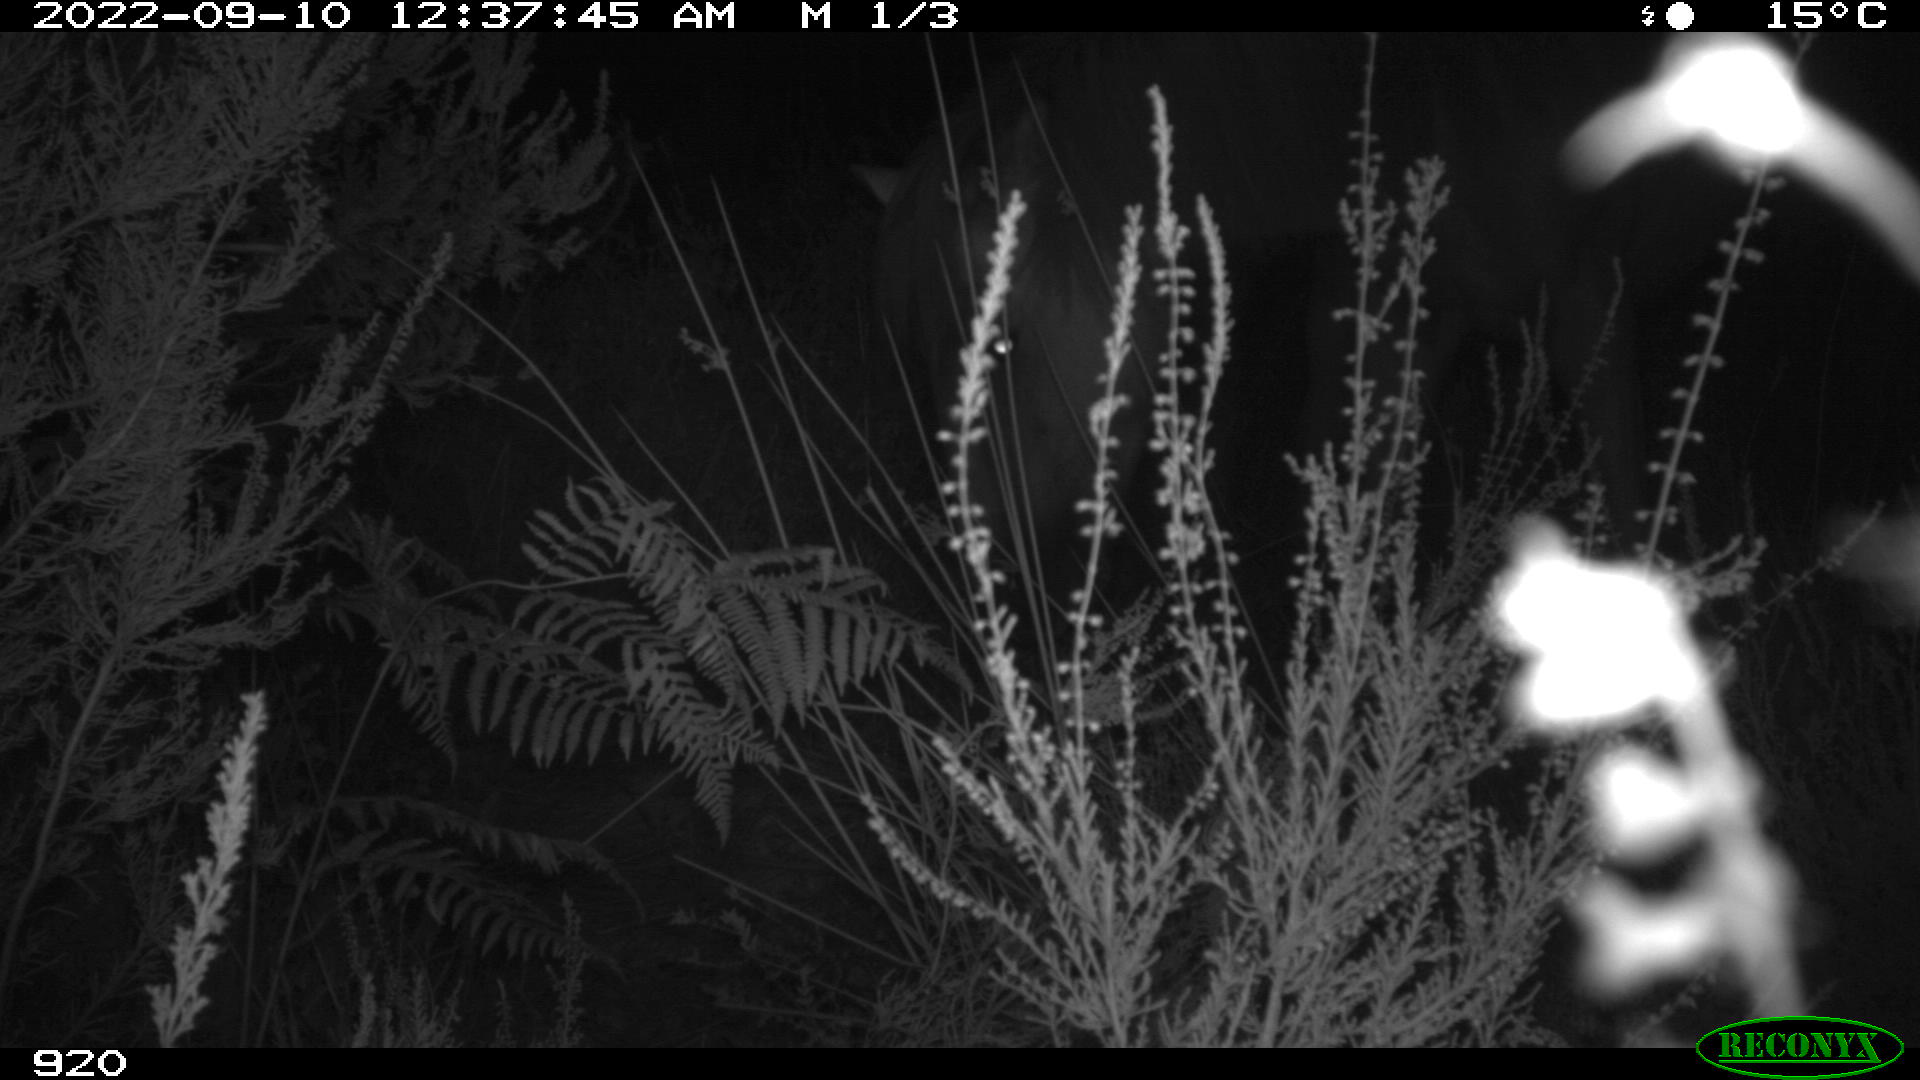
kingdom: Animalia
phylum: Chordata
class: Mammalia
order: Perissodactyla
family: Equidae
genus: Equus
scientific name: Equus caballus
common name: Horse
